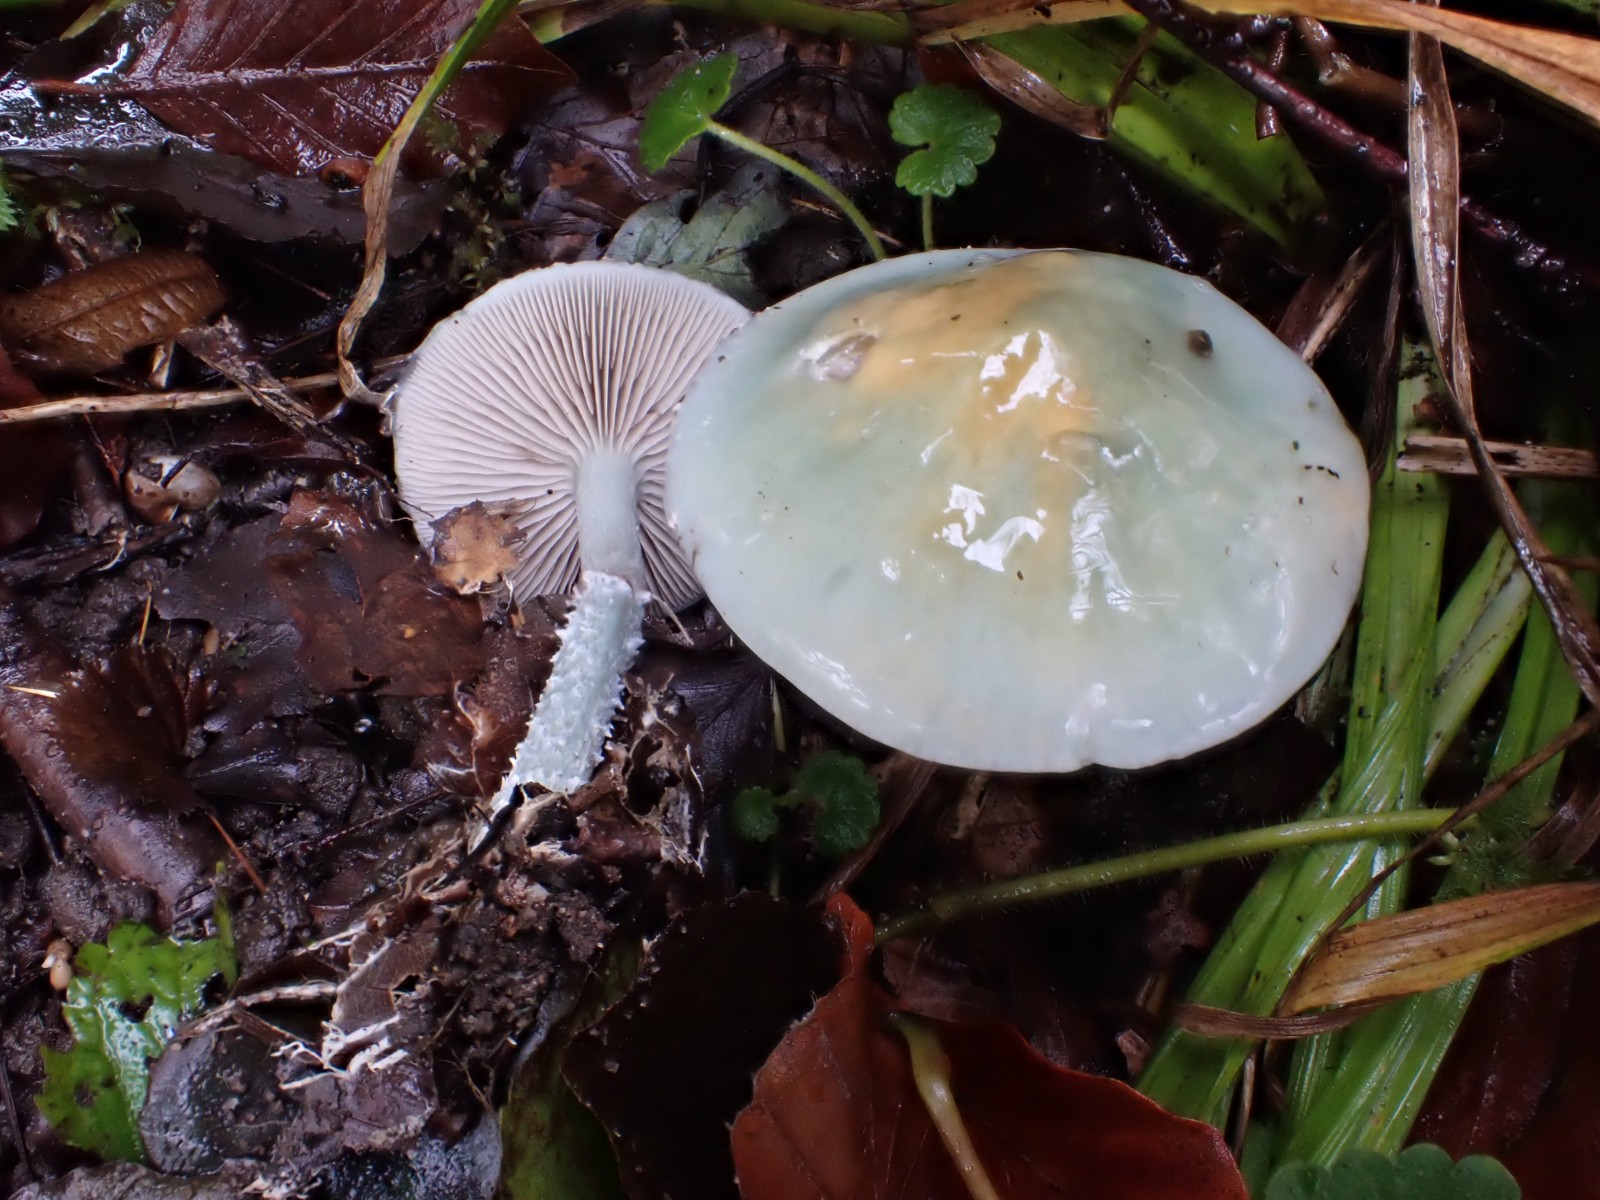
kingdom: Fungi
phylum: Basidiomycota
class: Agaricomycetes
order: Agaricales
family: Strophariaceae
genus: Stropharia
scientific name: Stropharia cyanea
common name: blågrøn bredblad
